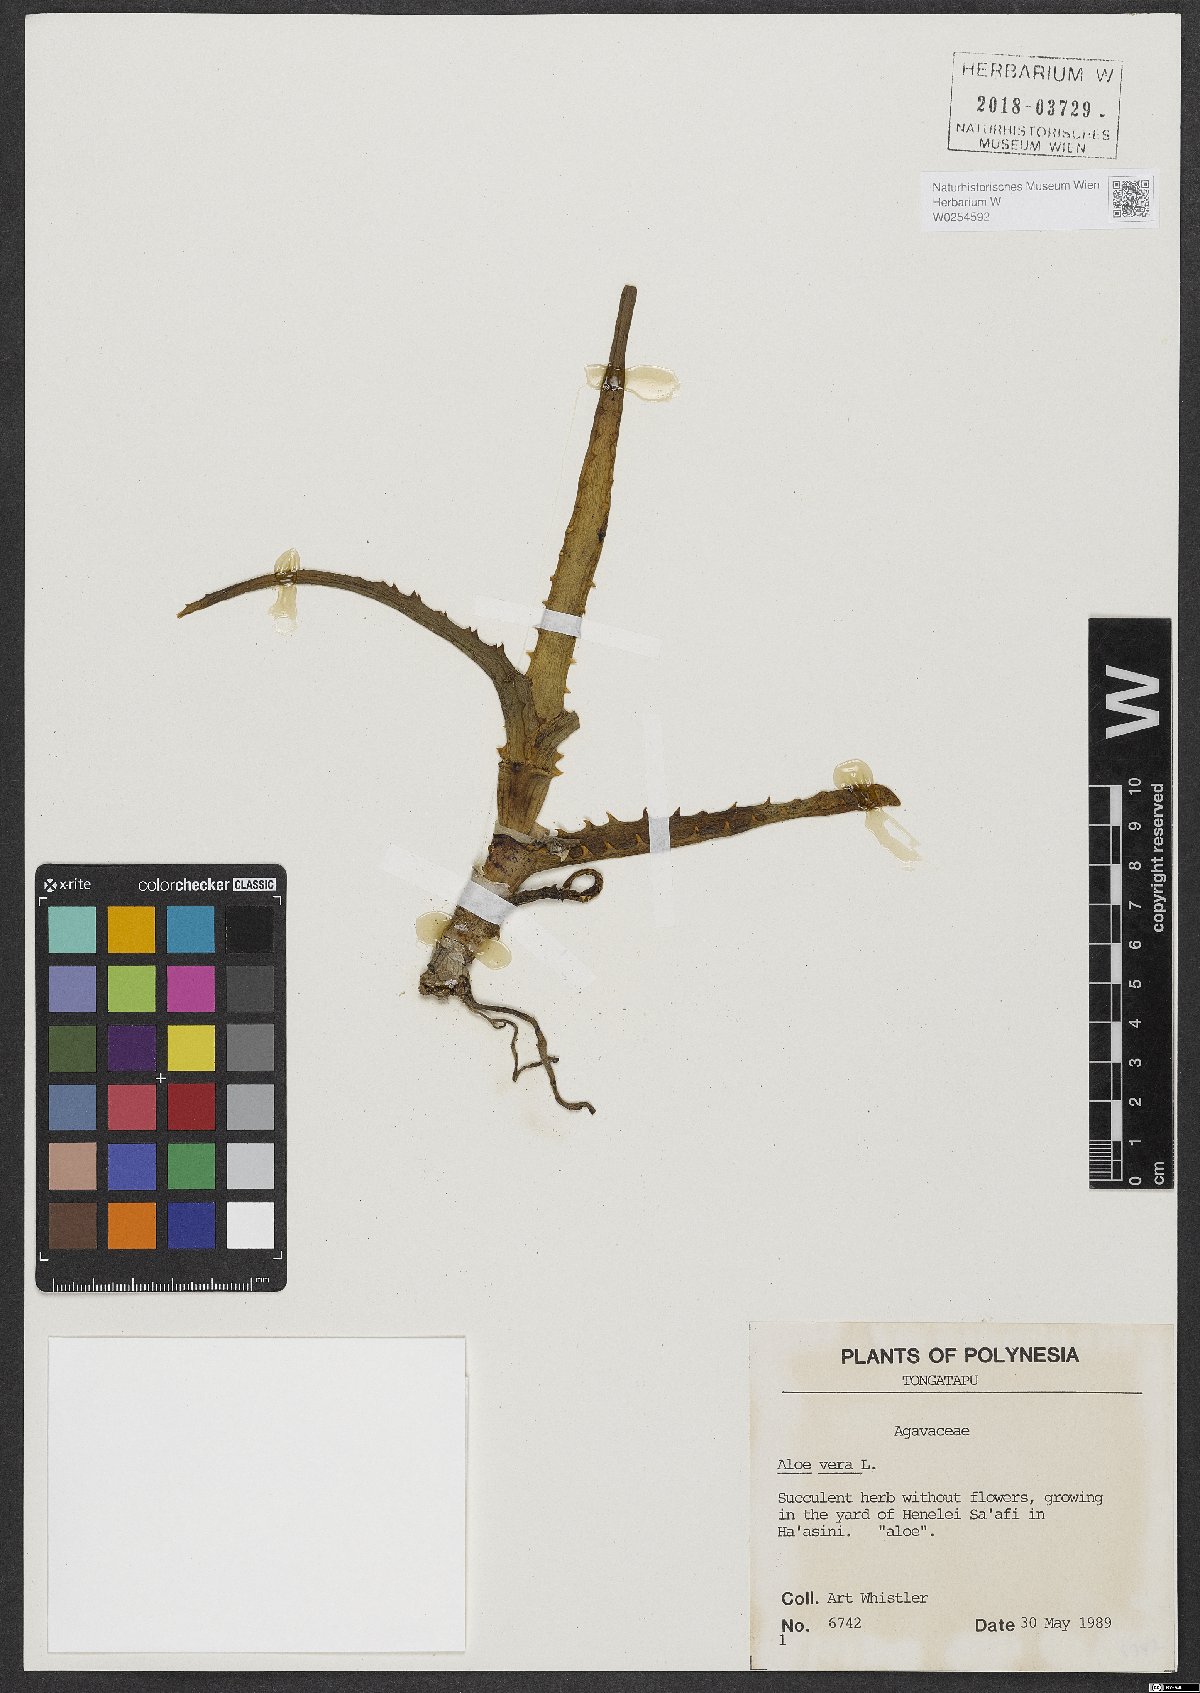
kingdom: Plantae
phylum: Tracheophyta
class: Liliopsida
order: Asparagales
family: Asphodelaceae
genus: Aloe
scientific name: Aloe vera
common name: Barbados aloe
